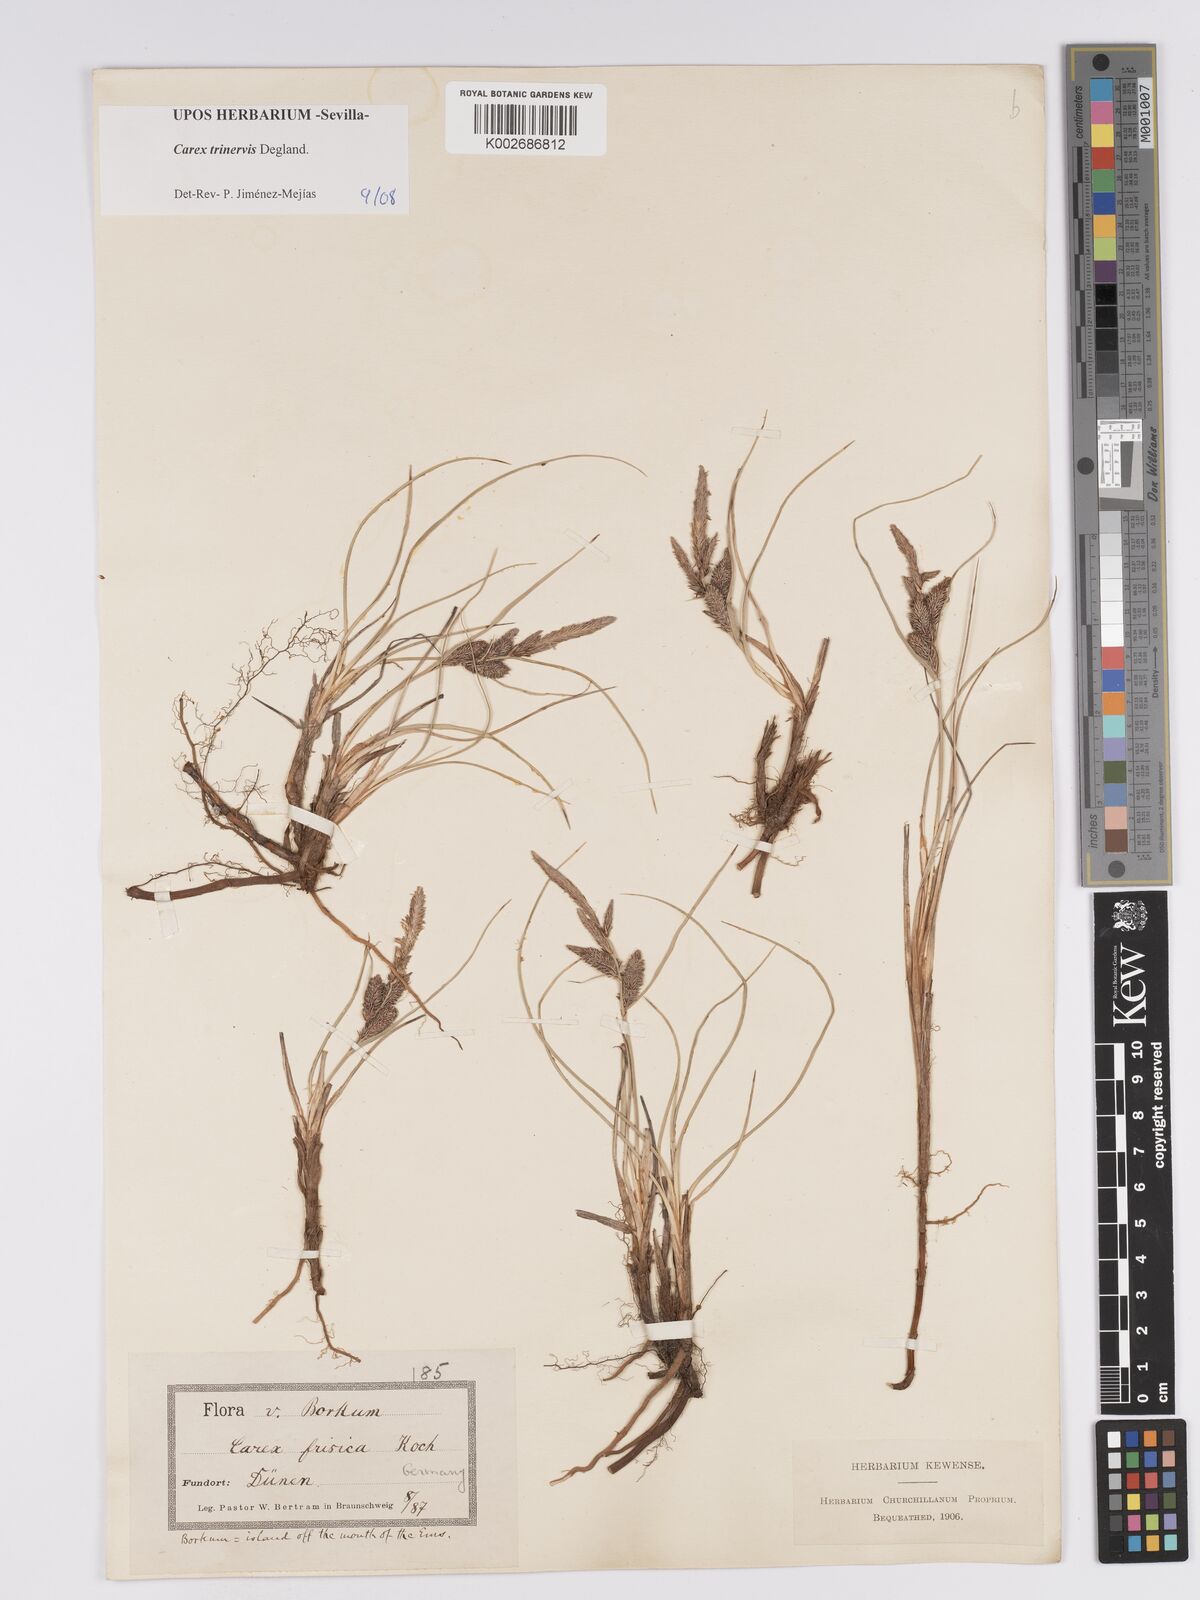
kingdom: Plantae
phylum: Tracheophyta
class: Liliopsida
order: Poales
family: Cyperaceae
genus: Carex
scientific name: Carex trinervis
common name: Three-nerved sedge
